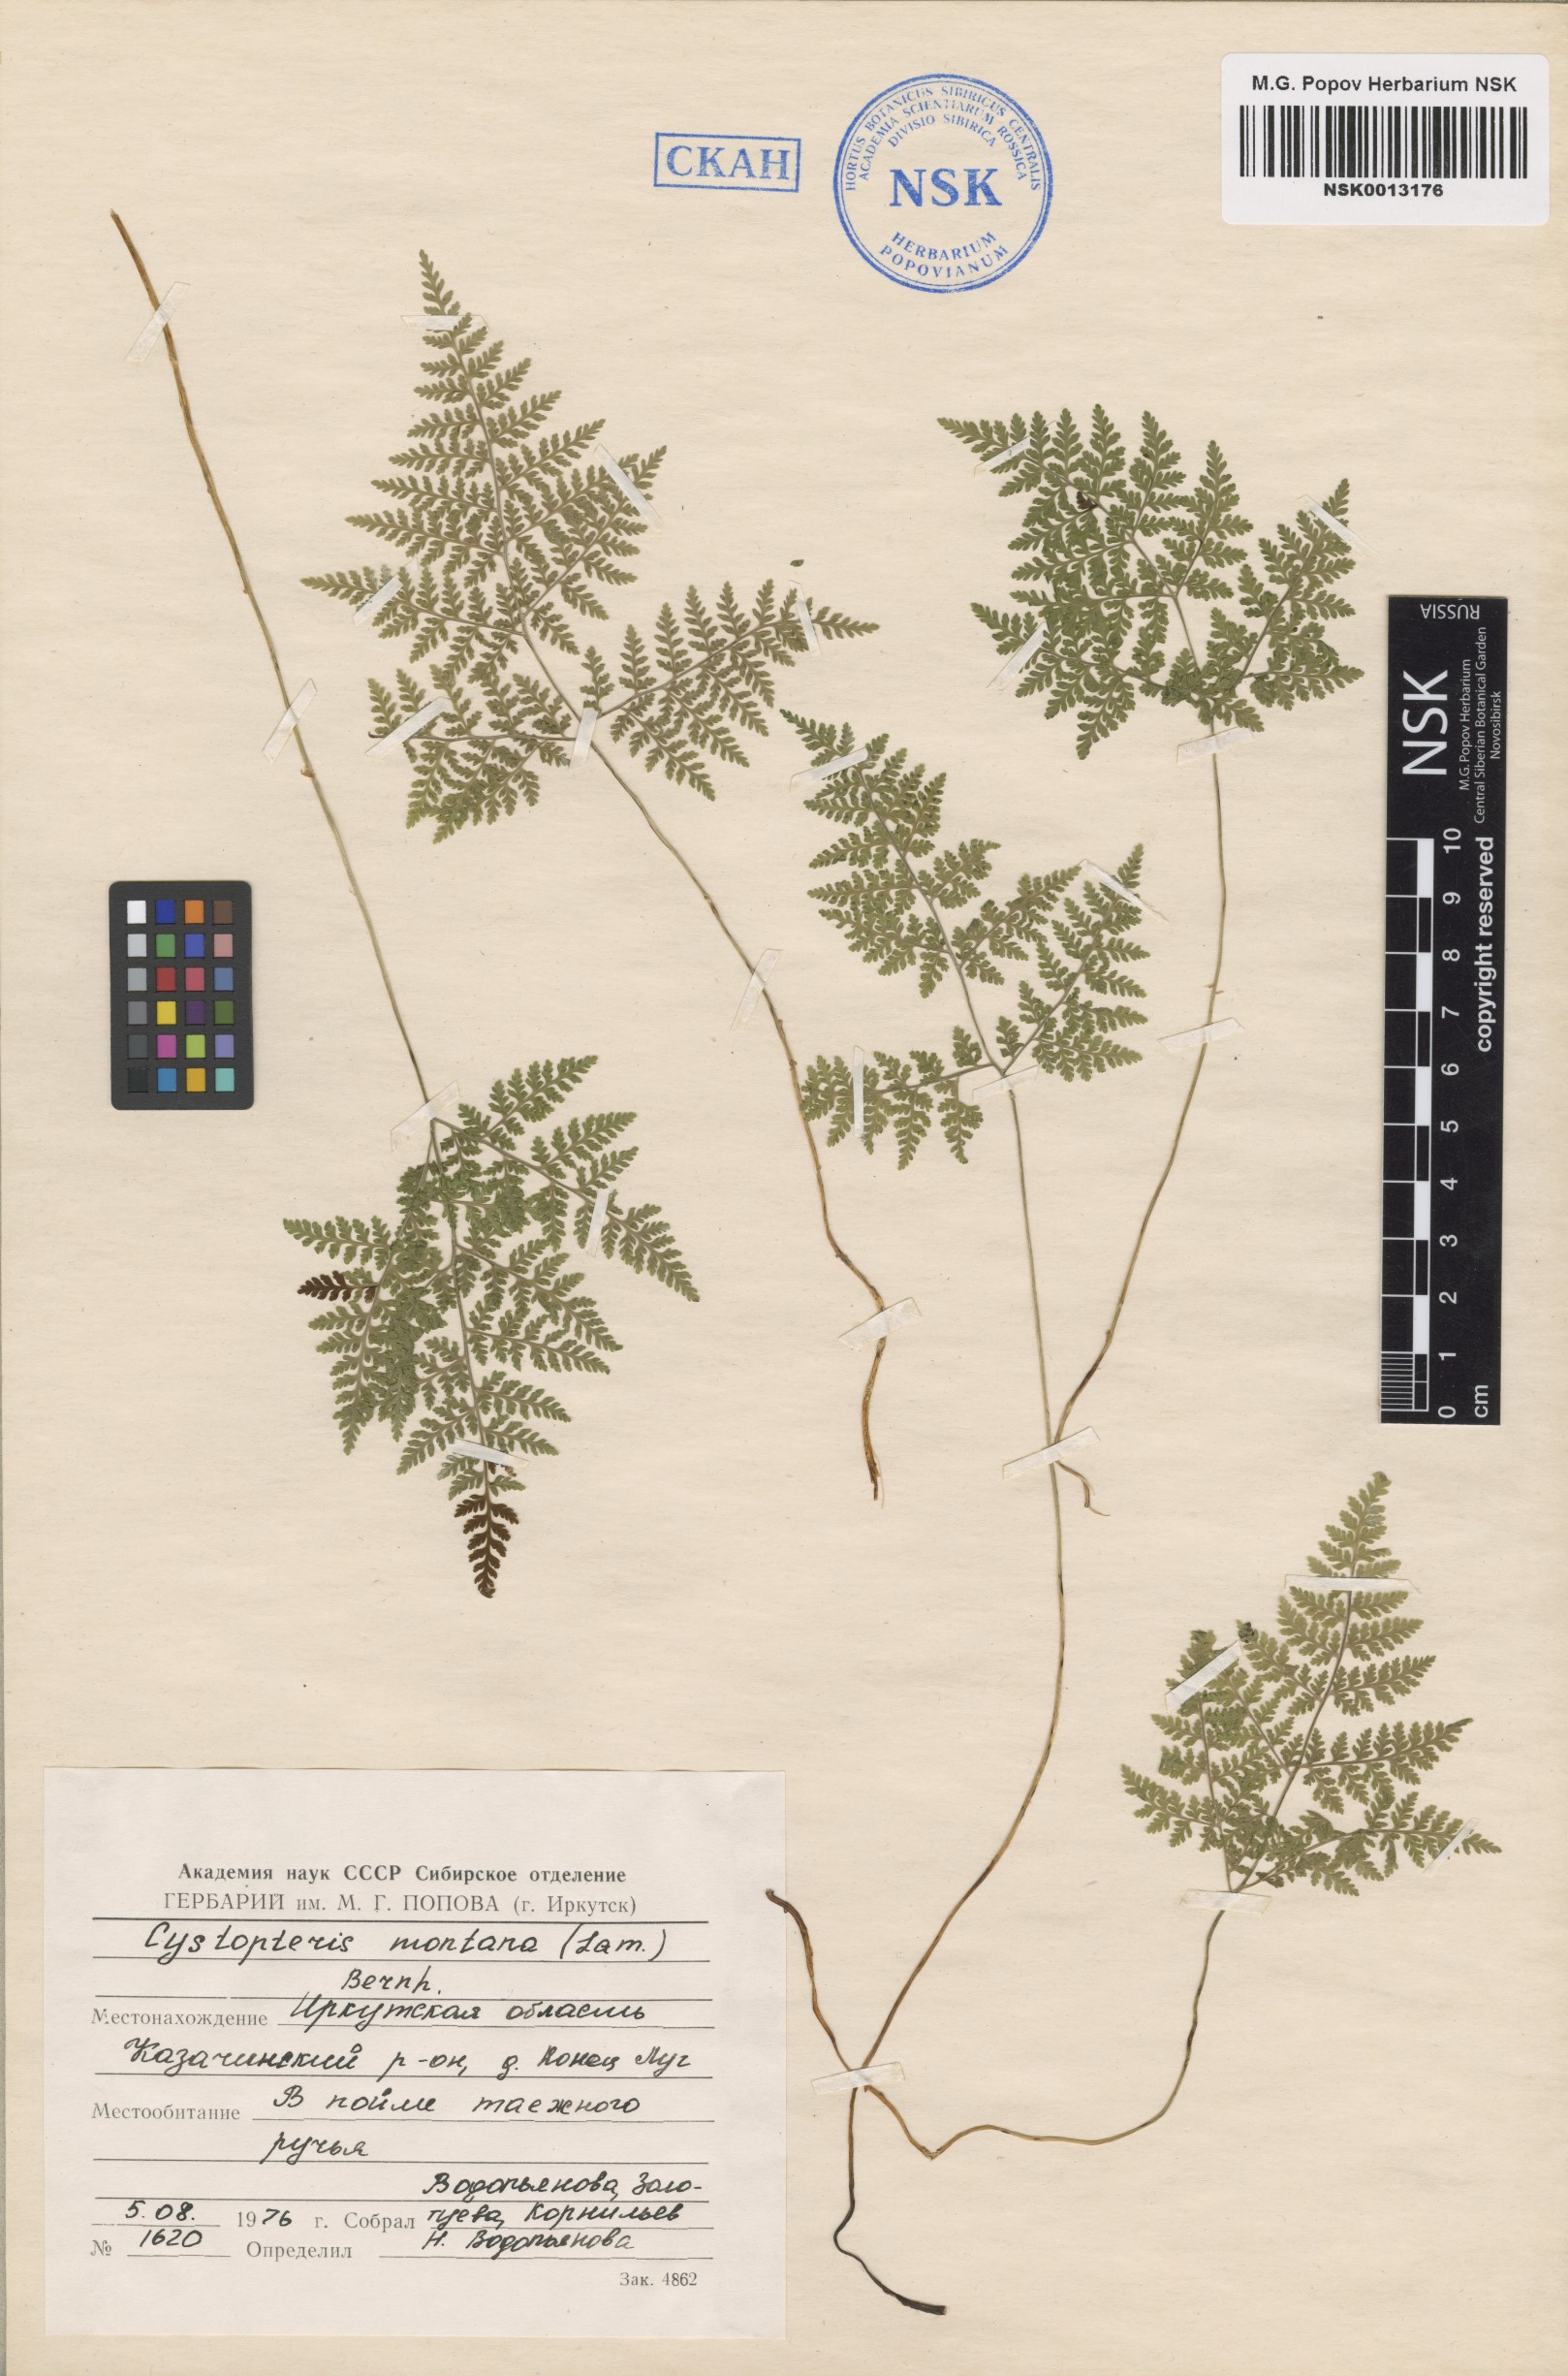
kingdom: Plantae
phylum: Tracheophyta
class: Polypodiopsida
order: Polypodiales
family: Cystopteridaceae
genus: Cystopteris
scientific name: Cystopteris montana
